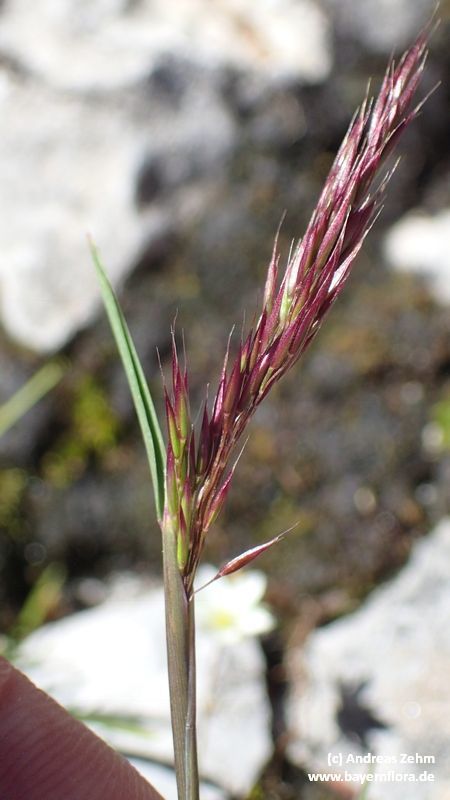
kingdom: Plantae
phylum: Tracheophyta
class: Liliopsida
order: Poales
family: Poaceae
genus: Alpagrostis
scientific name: Alpagrostis alpina
